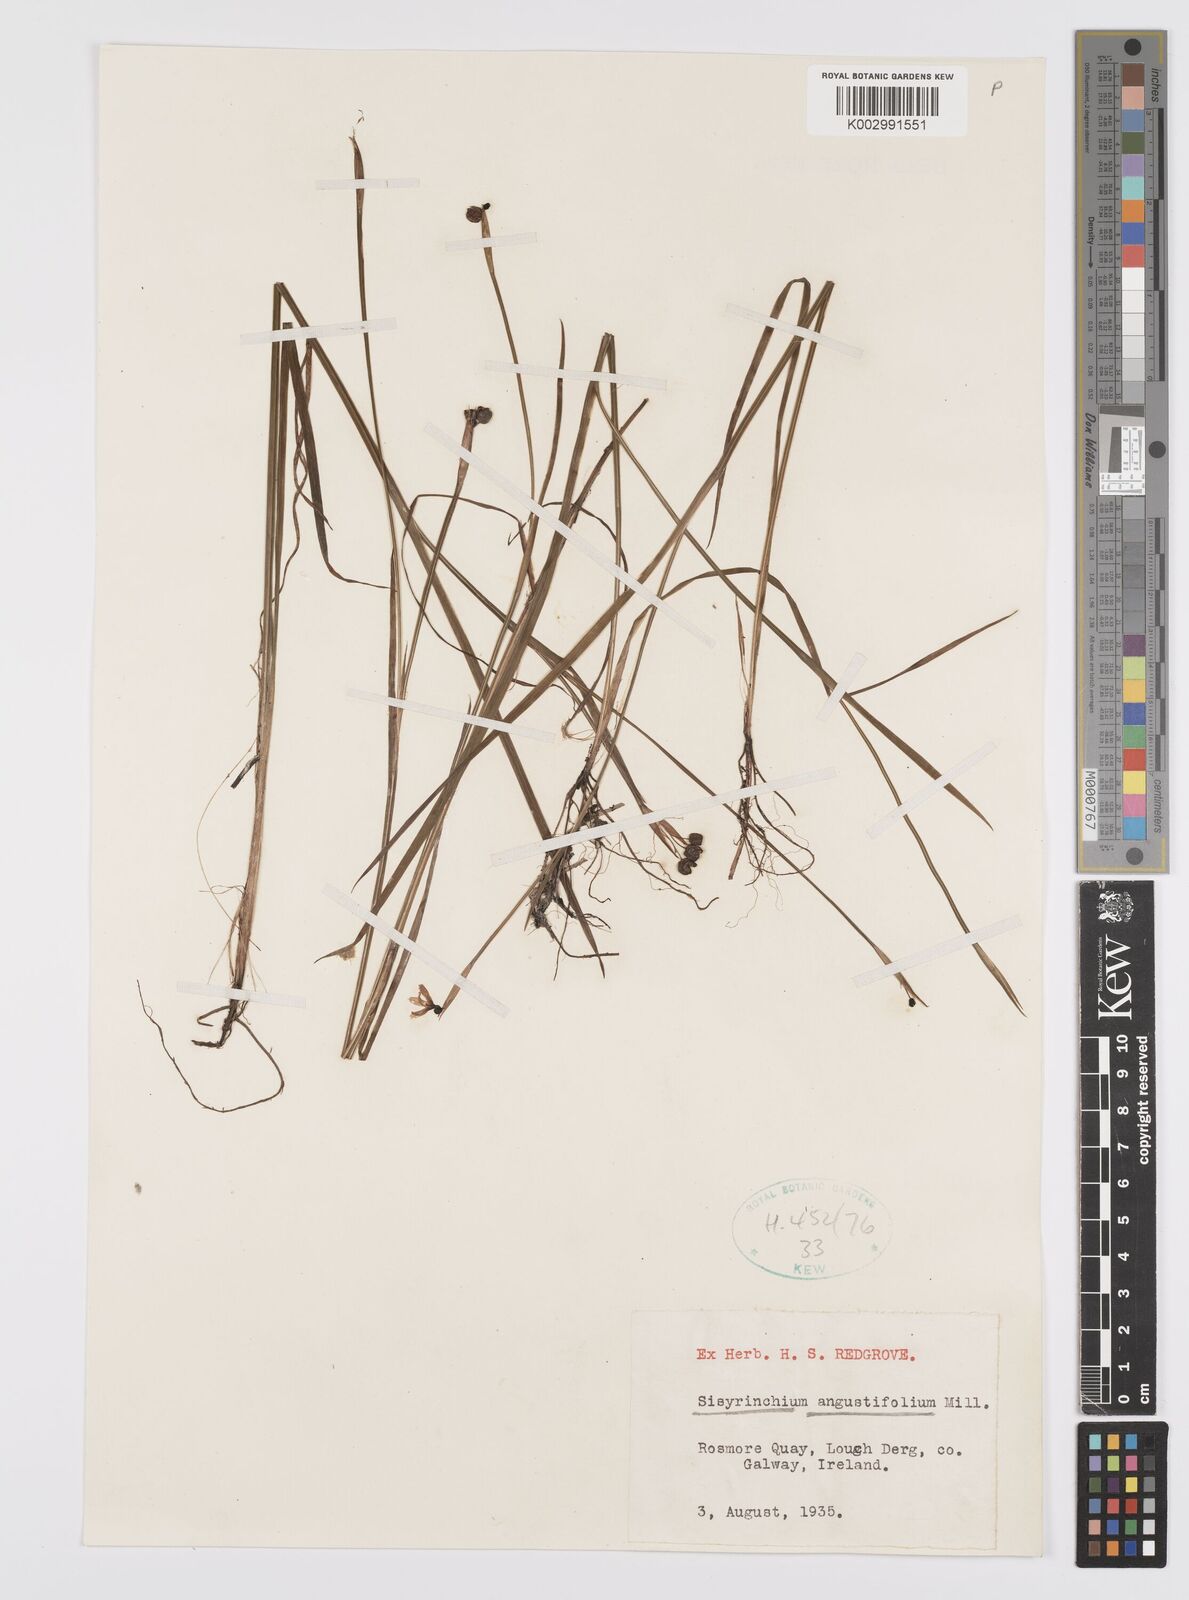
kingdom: Plantae
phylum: Tracheophyta
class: Liliopsida
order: Asparagales
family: Iridaceae
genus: Sisyrinchium
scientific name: Sisyrinchium angustifolium
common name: Narrow-leaf blue-eyed-grass
